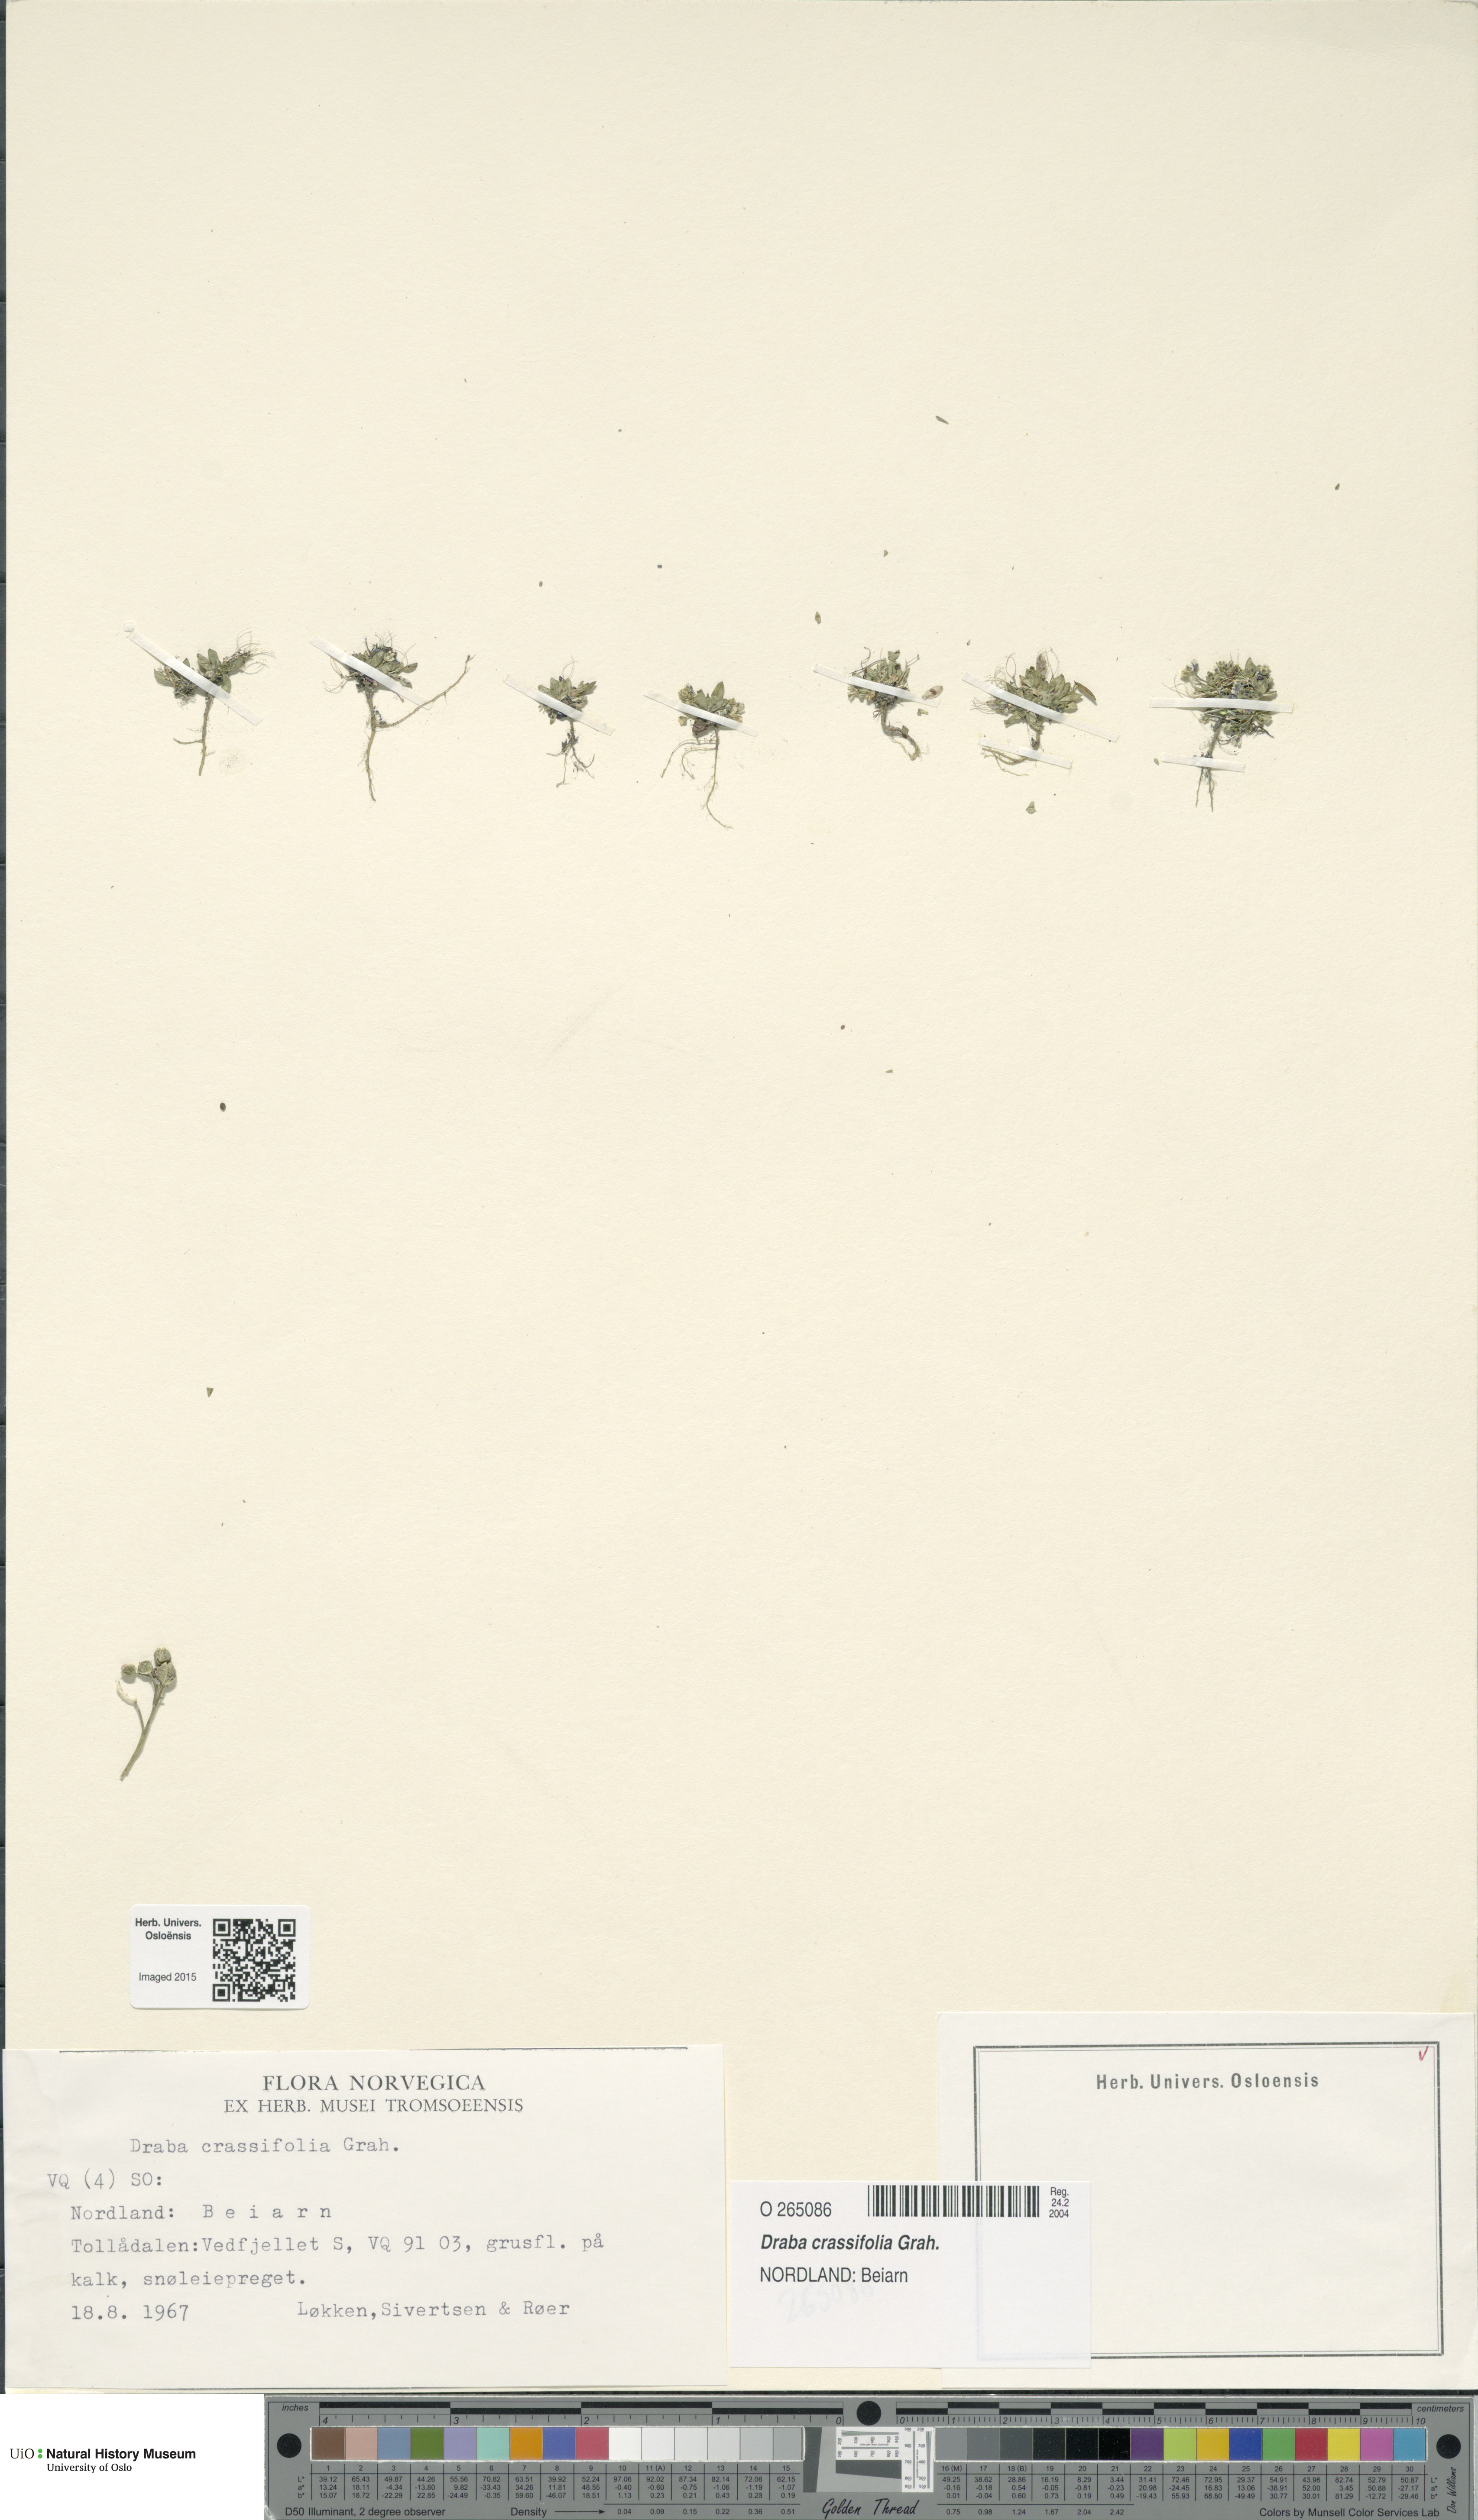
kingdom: Plantae
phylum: Tracheophyta
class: Magnoliopsida
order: Brassicales
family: Brassicaceae
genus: Draba
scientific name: Draba crassifolia
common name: Rocky mountain draba
